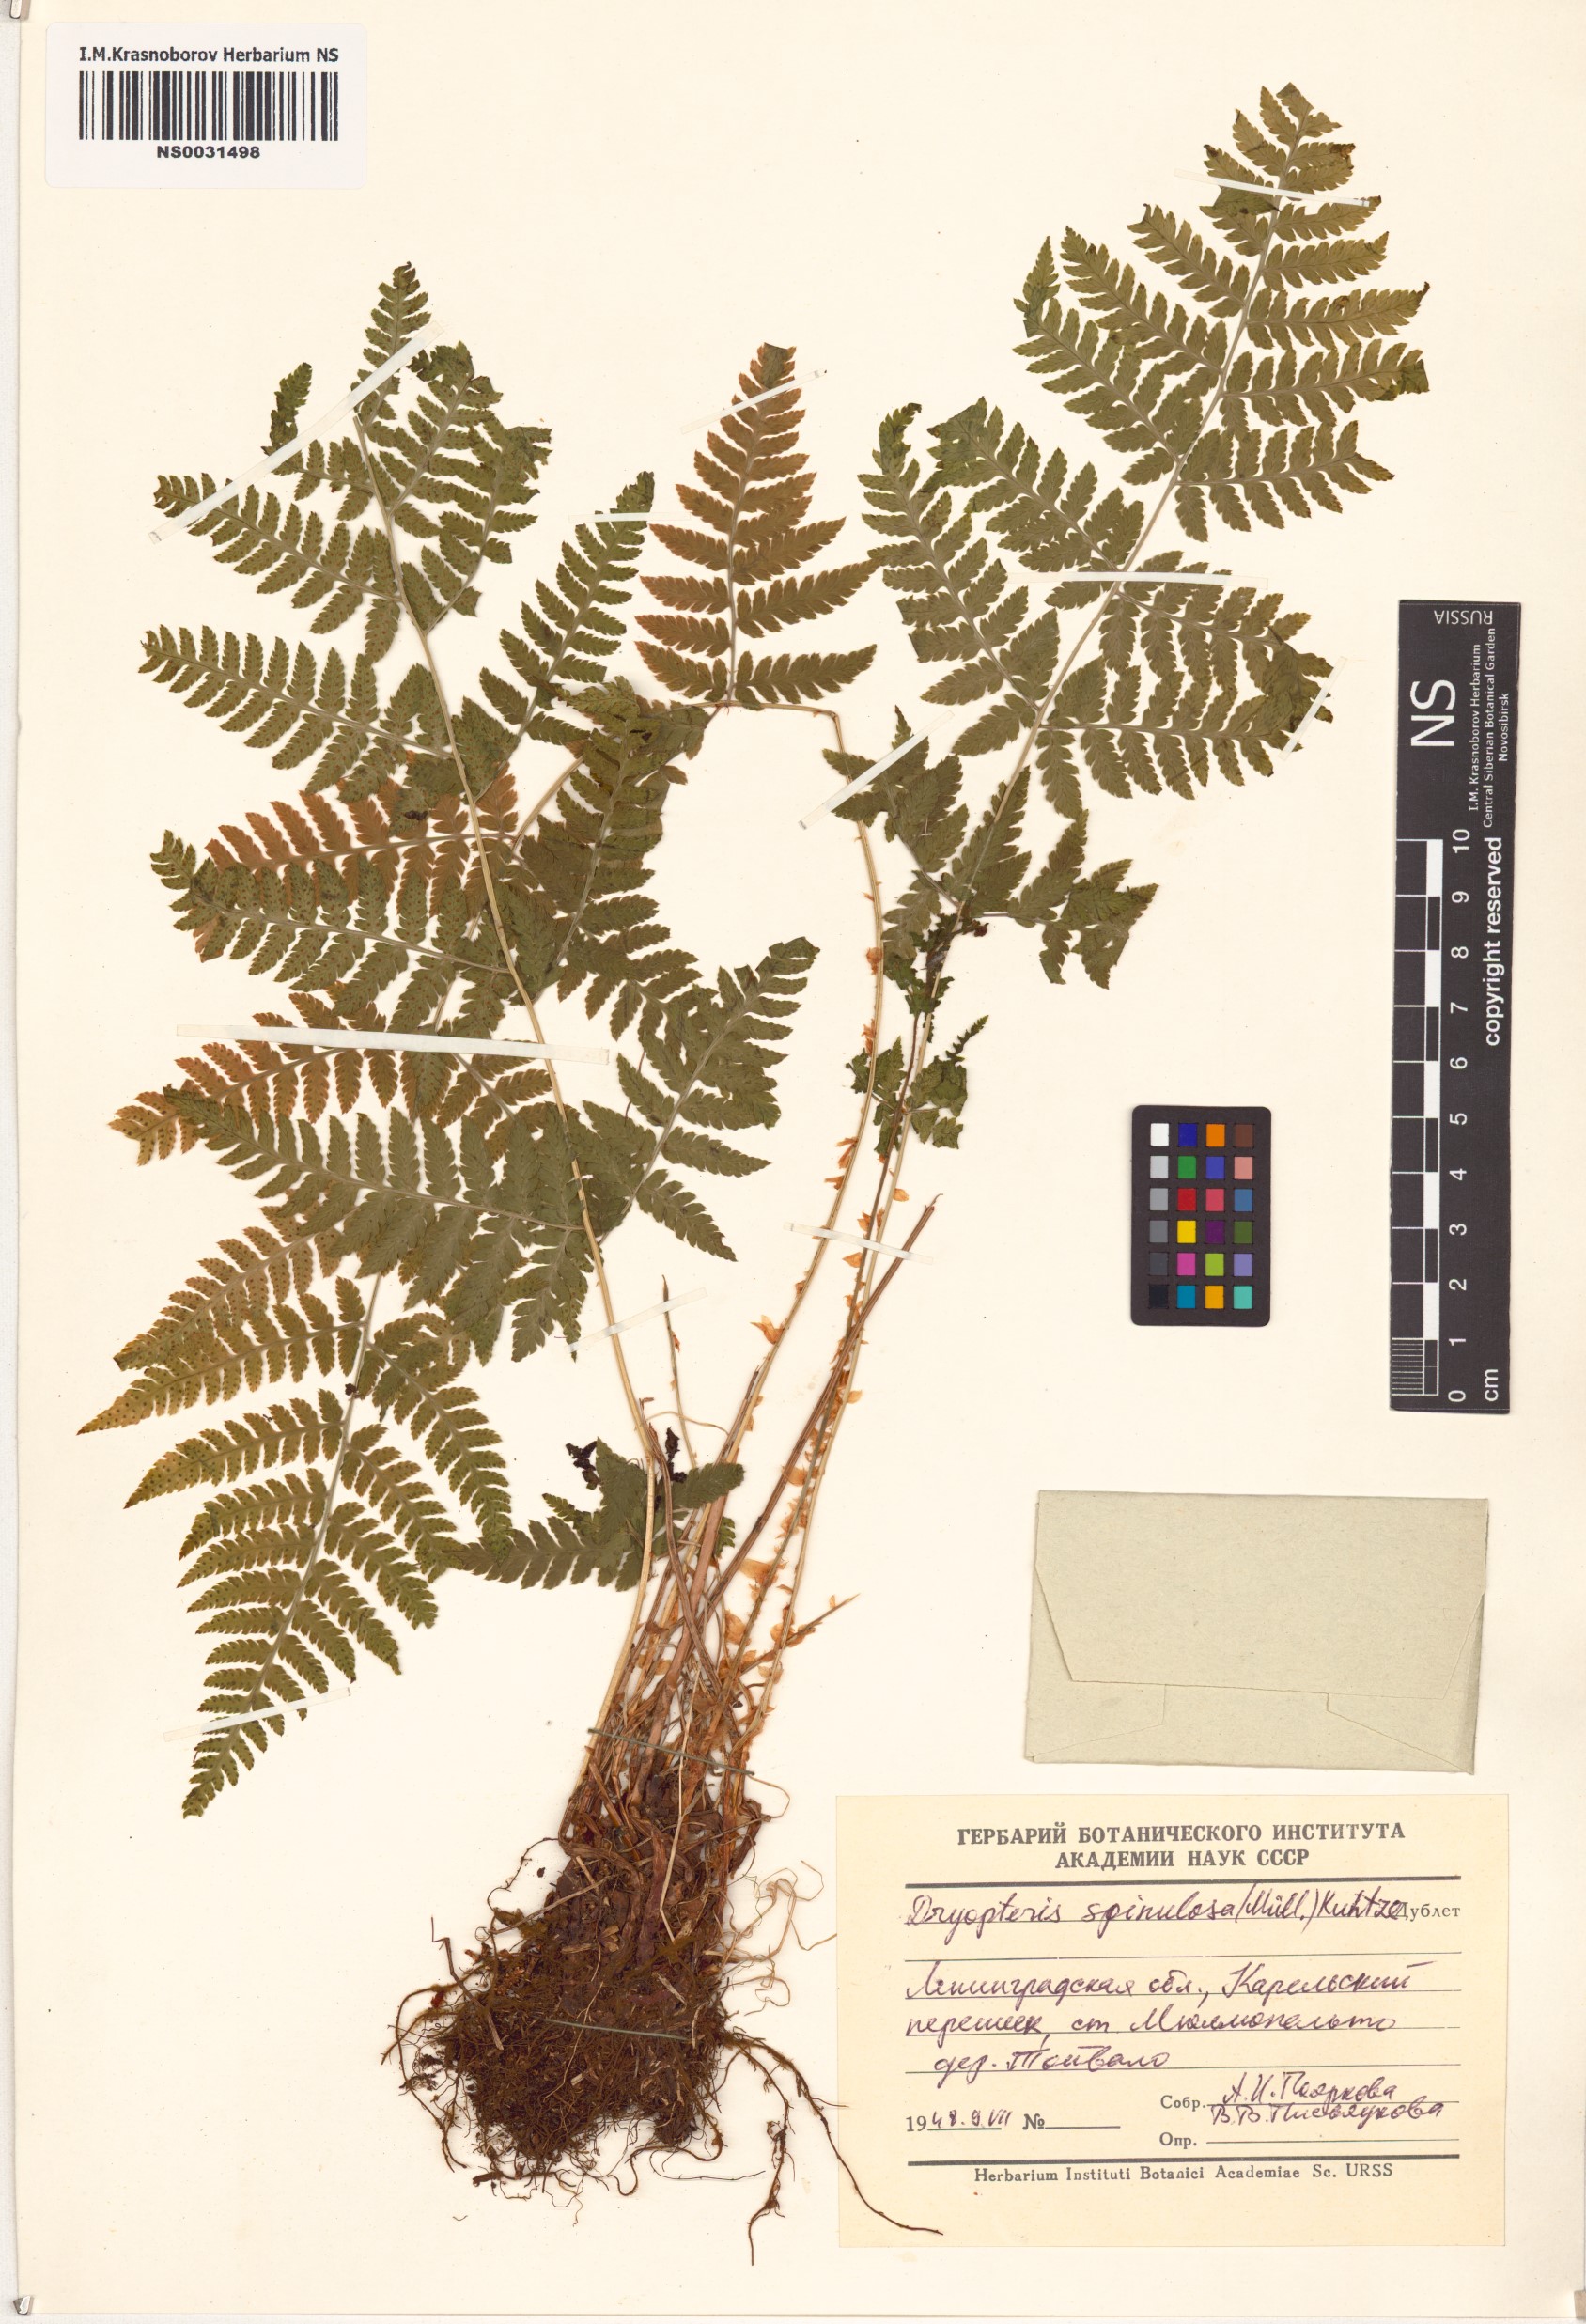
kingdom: Plantae
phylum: Tracheophyta
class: Polypodiopsida
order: Polypodiales
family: Dryopteridaceae
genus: Dryopteris
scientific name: Dryopteris carthusiana
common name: Narrow buckler-fern
